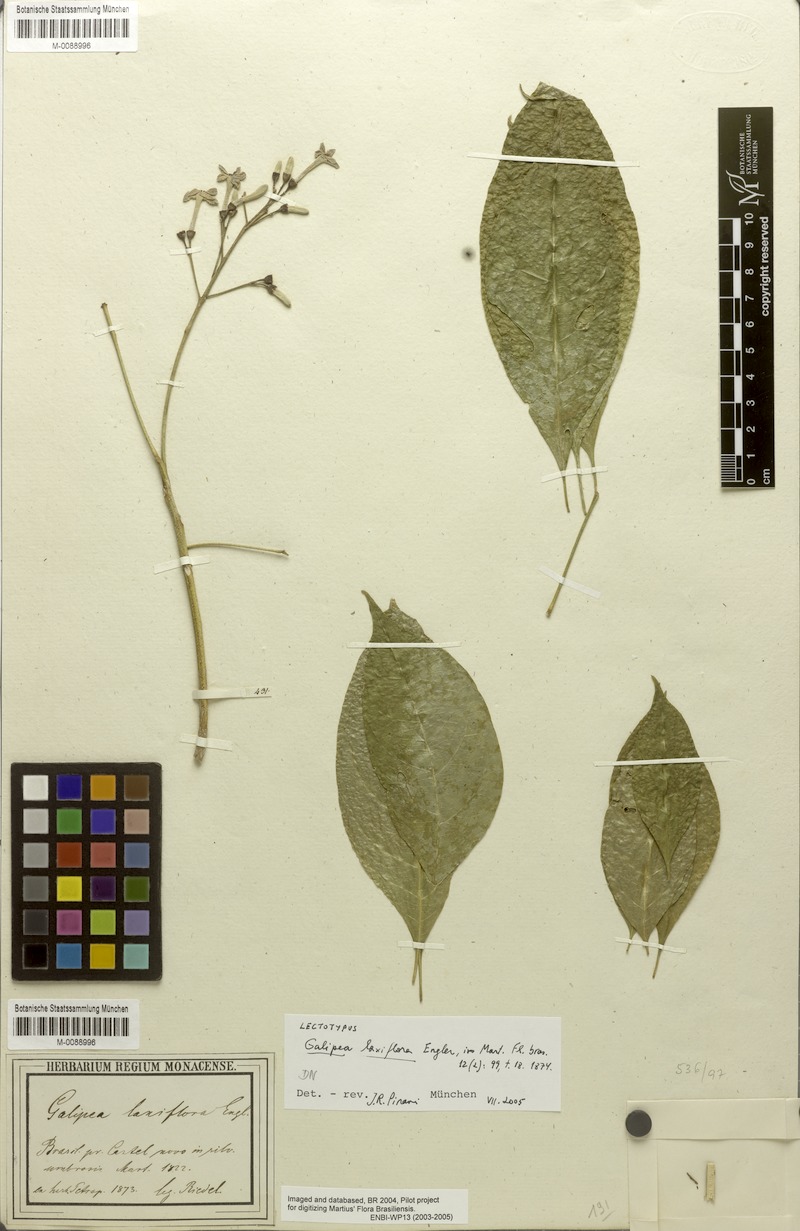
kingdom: Plantae
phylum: Tracheophyta
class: Magnoliopsida
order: Sapindales
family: Rutaceae
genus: Galipea
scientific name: Galipea laxiflora
